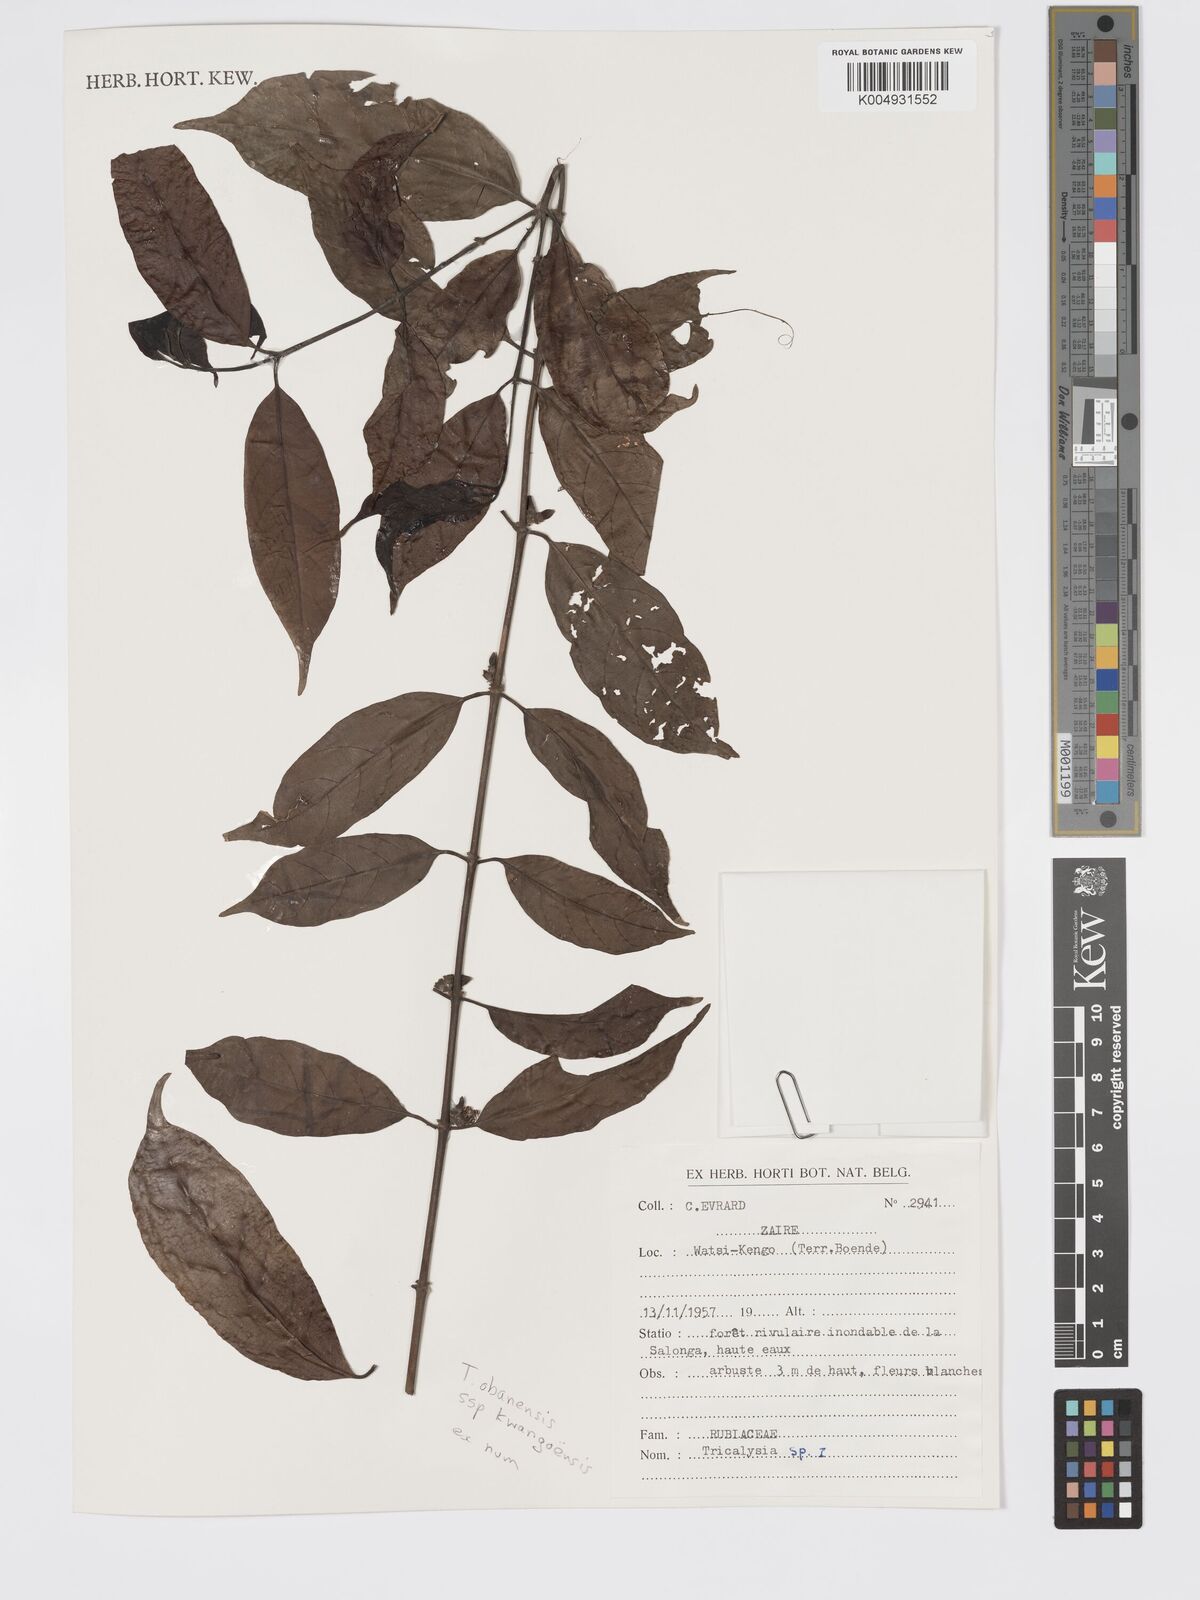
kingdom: Plantae
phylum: Tracheophyta
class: Magnoliopsida
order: Gentianales
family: Rubiaceae
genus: Tricalysia
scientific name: Tricalysia obanensis
